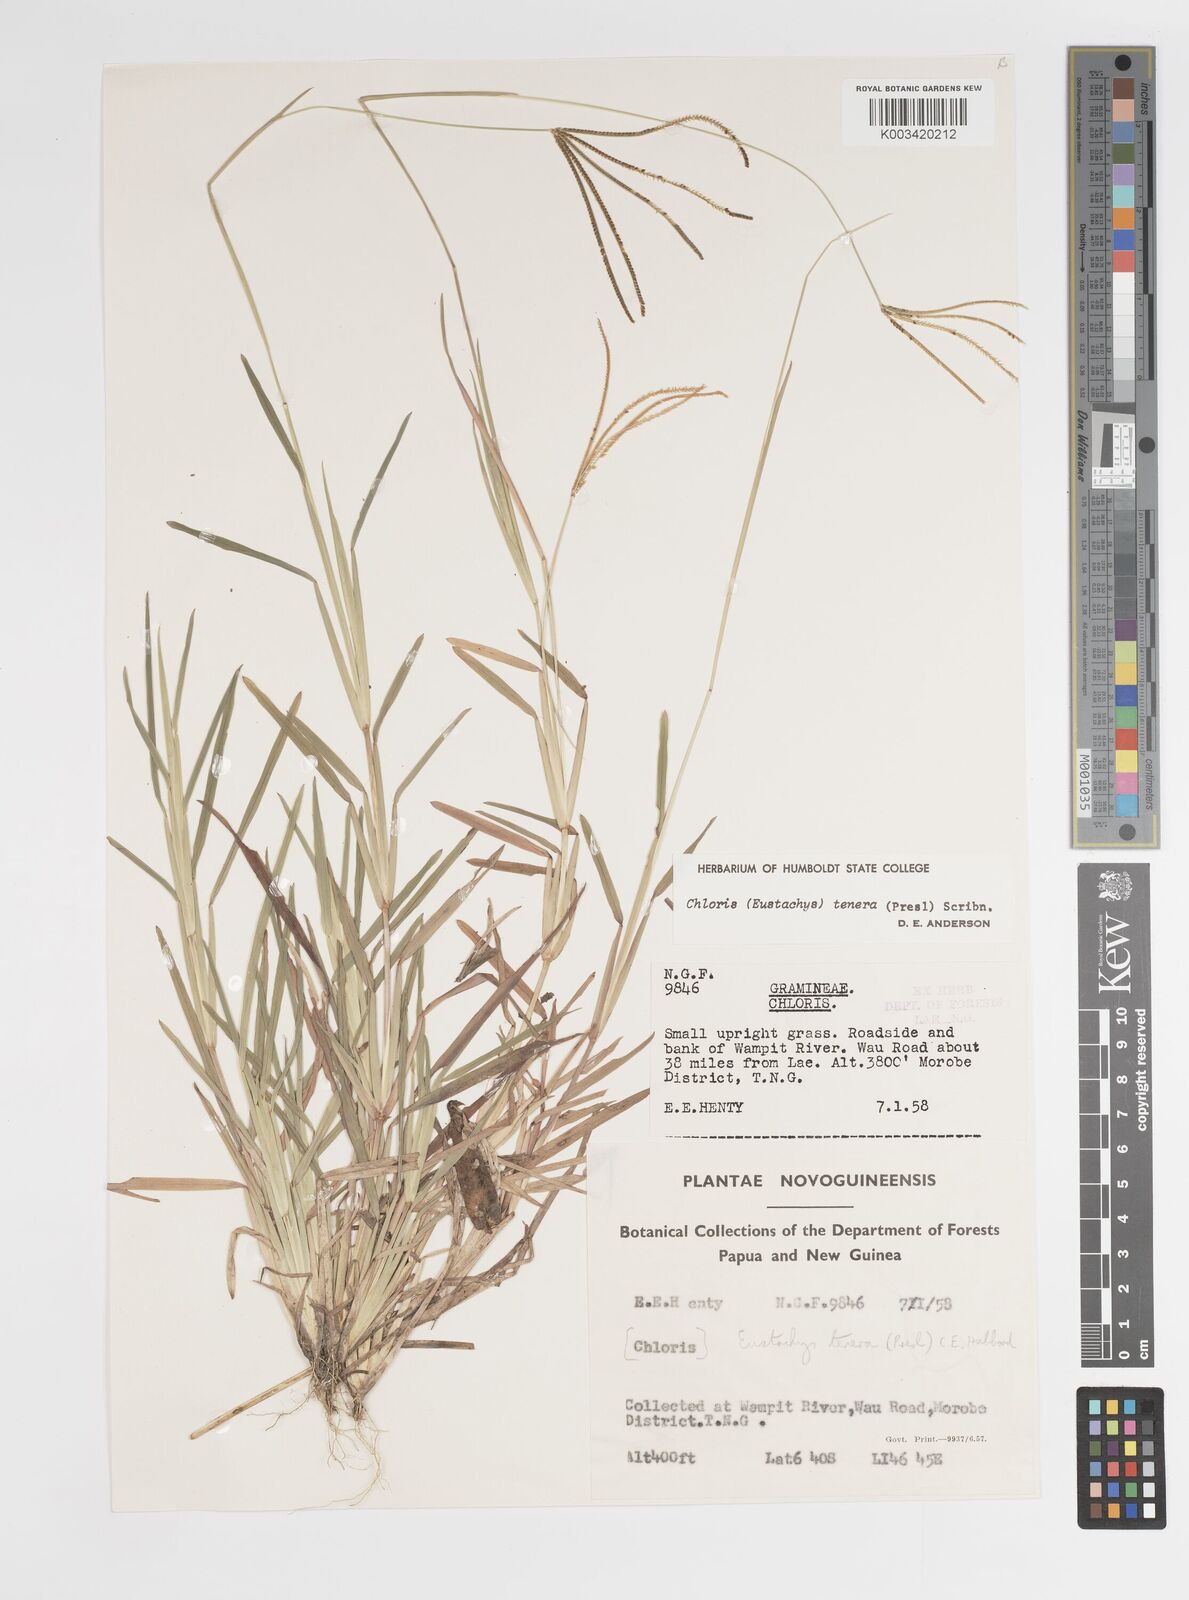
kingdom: Plantae
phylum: Tracheophyta
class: Liliopsida
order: Poales
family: Poaceae
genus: Eustachys
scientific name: Eustachys tenera
